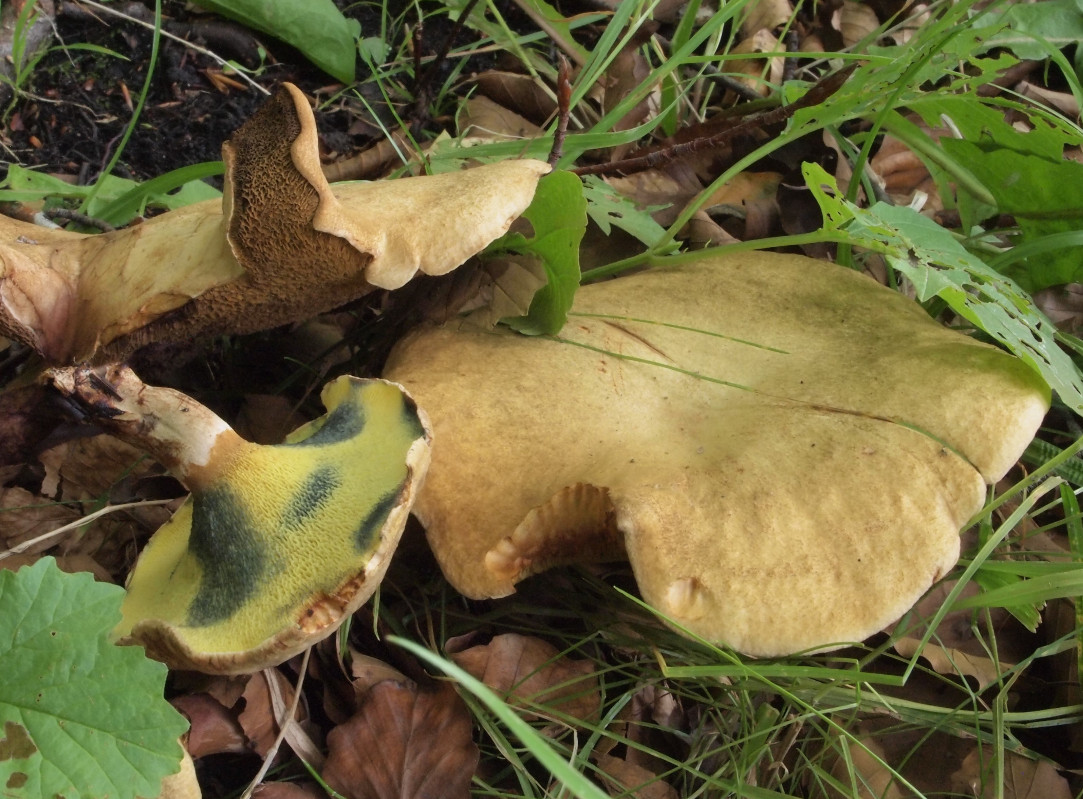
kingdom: Fungi
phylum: Basidiomycota
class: Agaricomycetes
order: Boletales
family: Paxillaceae
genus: Gyrodon
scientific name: Gyrodon lividus
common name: ellerørhat
